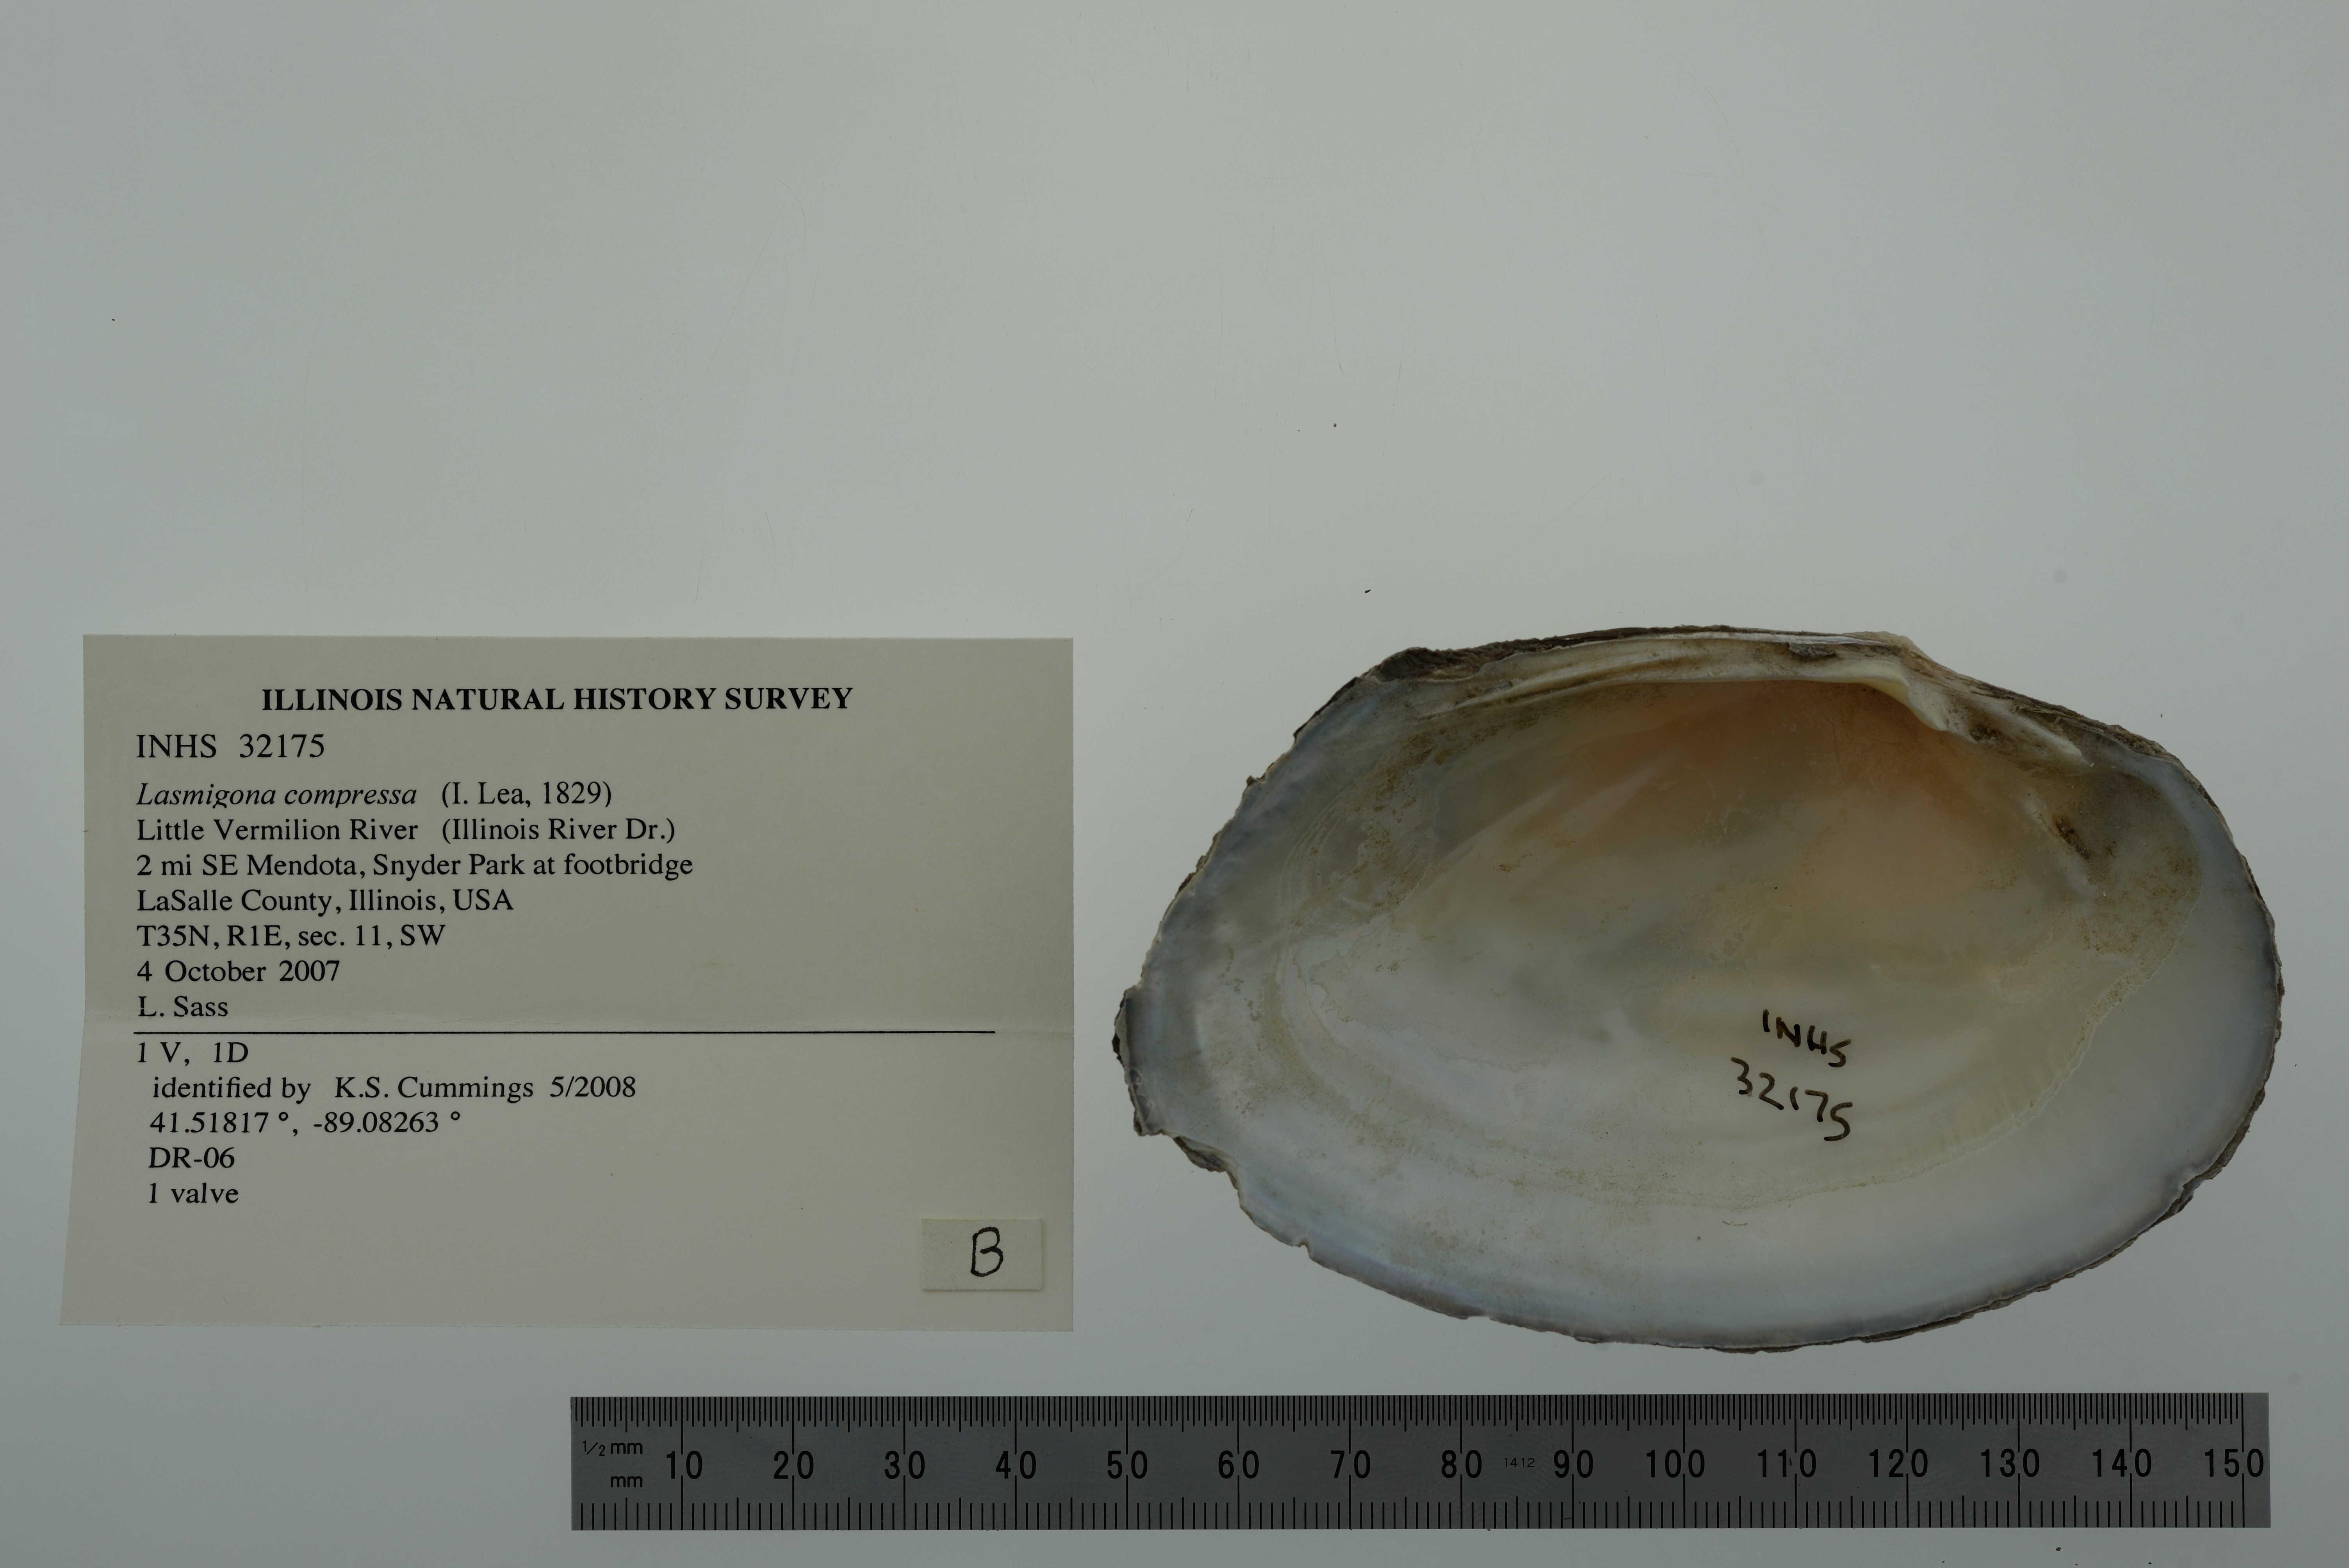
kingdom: Animalia
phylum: Mollusca
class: Bivalvia
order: Unionida
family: Unionidae
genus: Lasmigona
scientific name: Lasmigona compressa
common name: Creek heelsplitter
